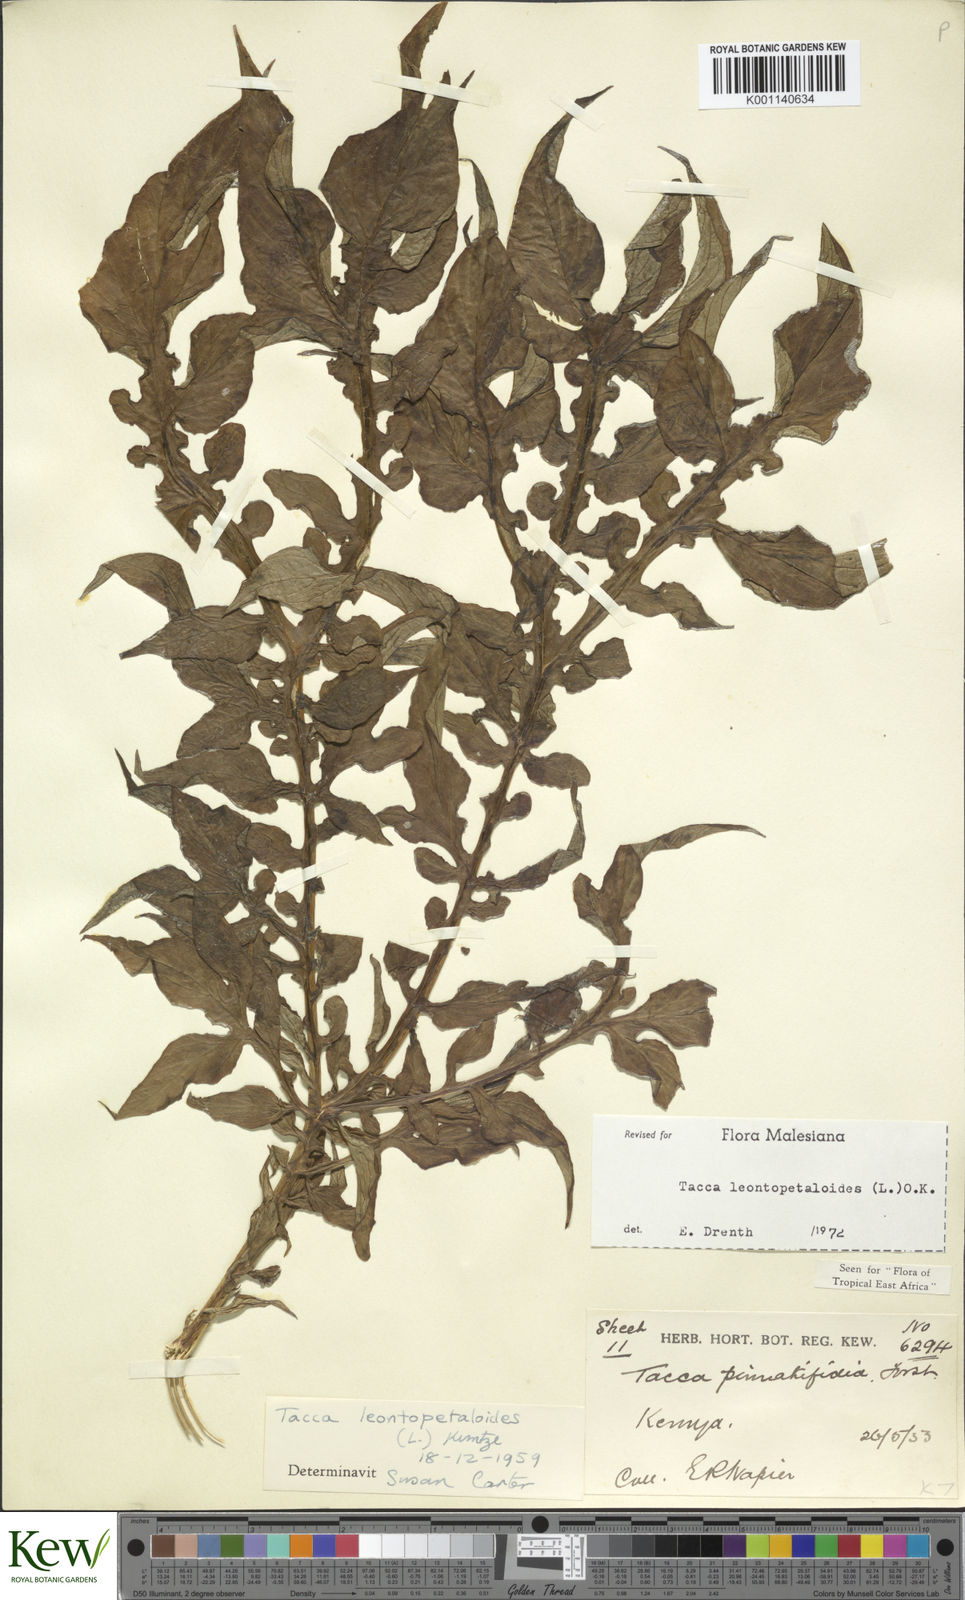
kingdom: Plantae
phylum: Tracheophyta
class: Liliopsida
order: Dioscoreales
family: Dioscoreaceae
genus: Tacca
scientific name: Tacca leontopetaloides
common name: Arrowroot
